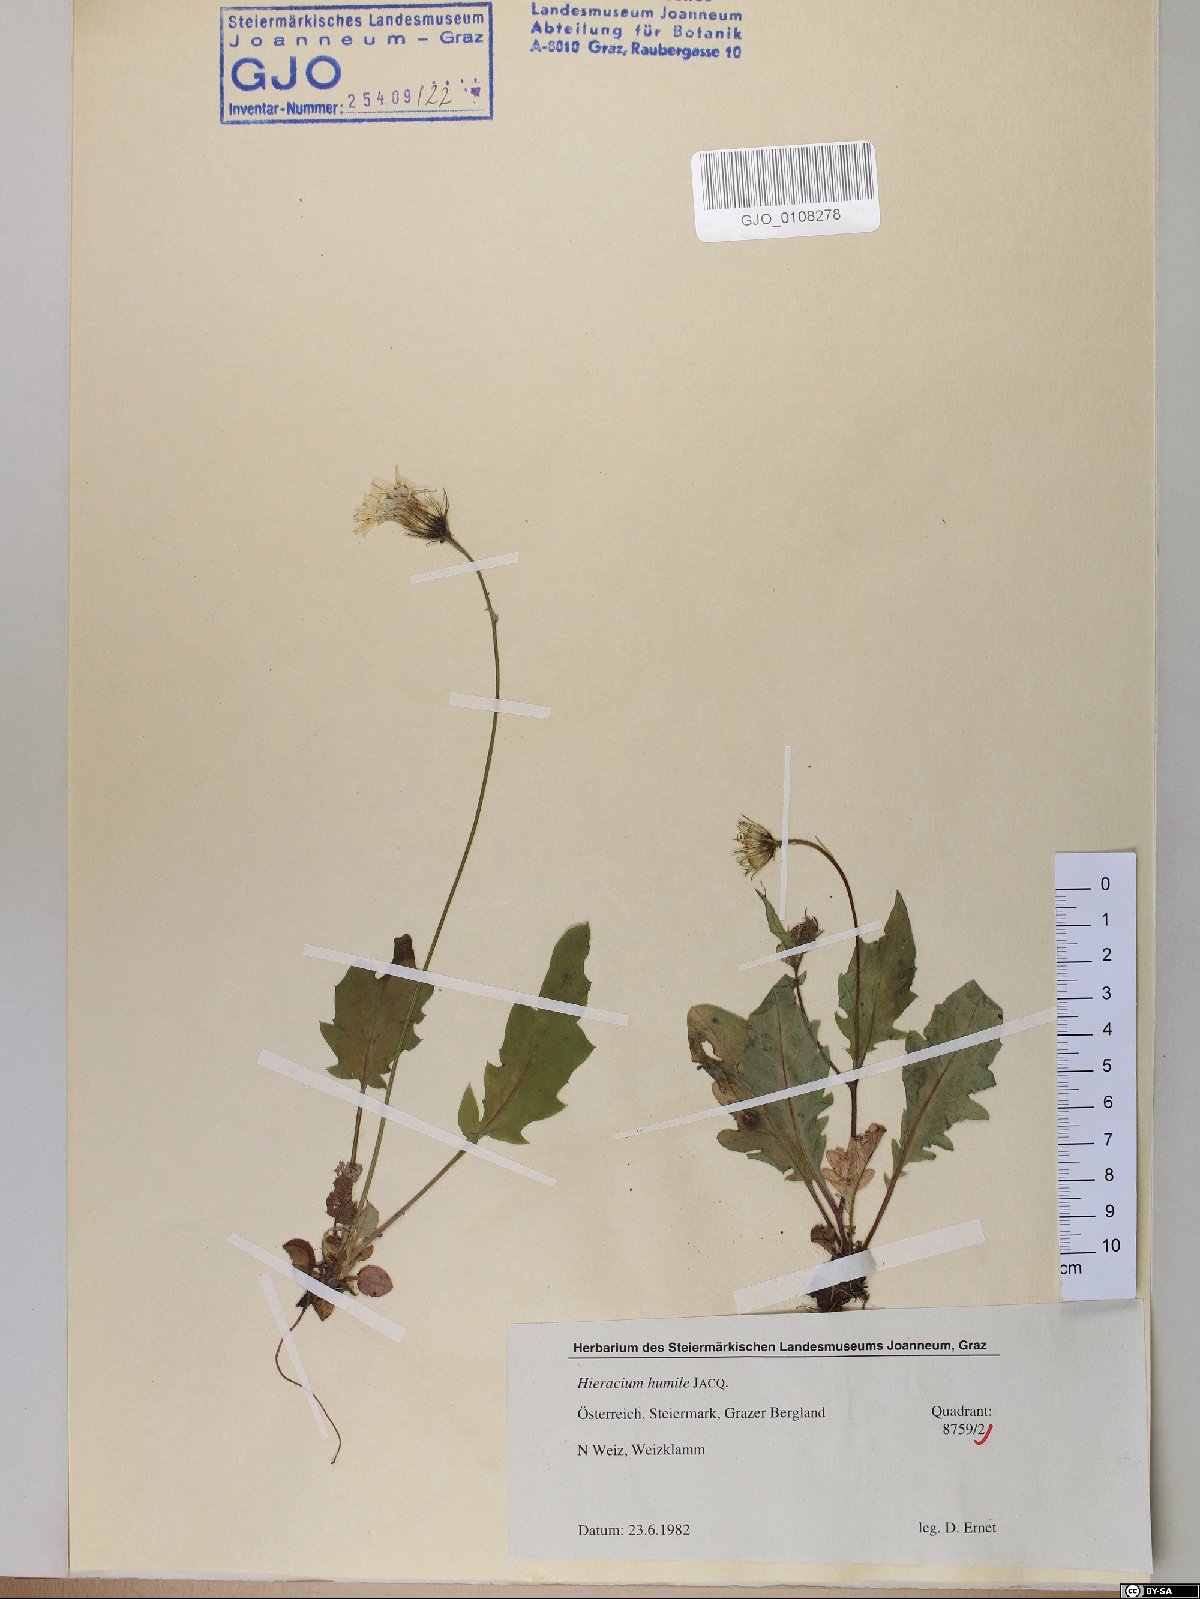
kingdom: Plantae
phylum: Tracheophyta
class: Magnoliopsida
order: Asterales
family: Asteraceae
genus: Hieracium
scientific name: Hieracium humile
